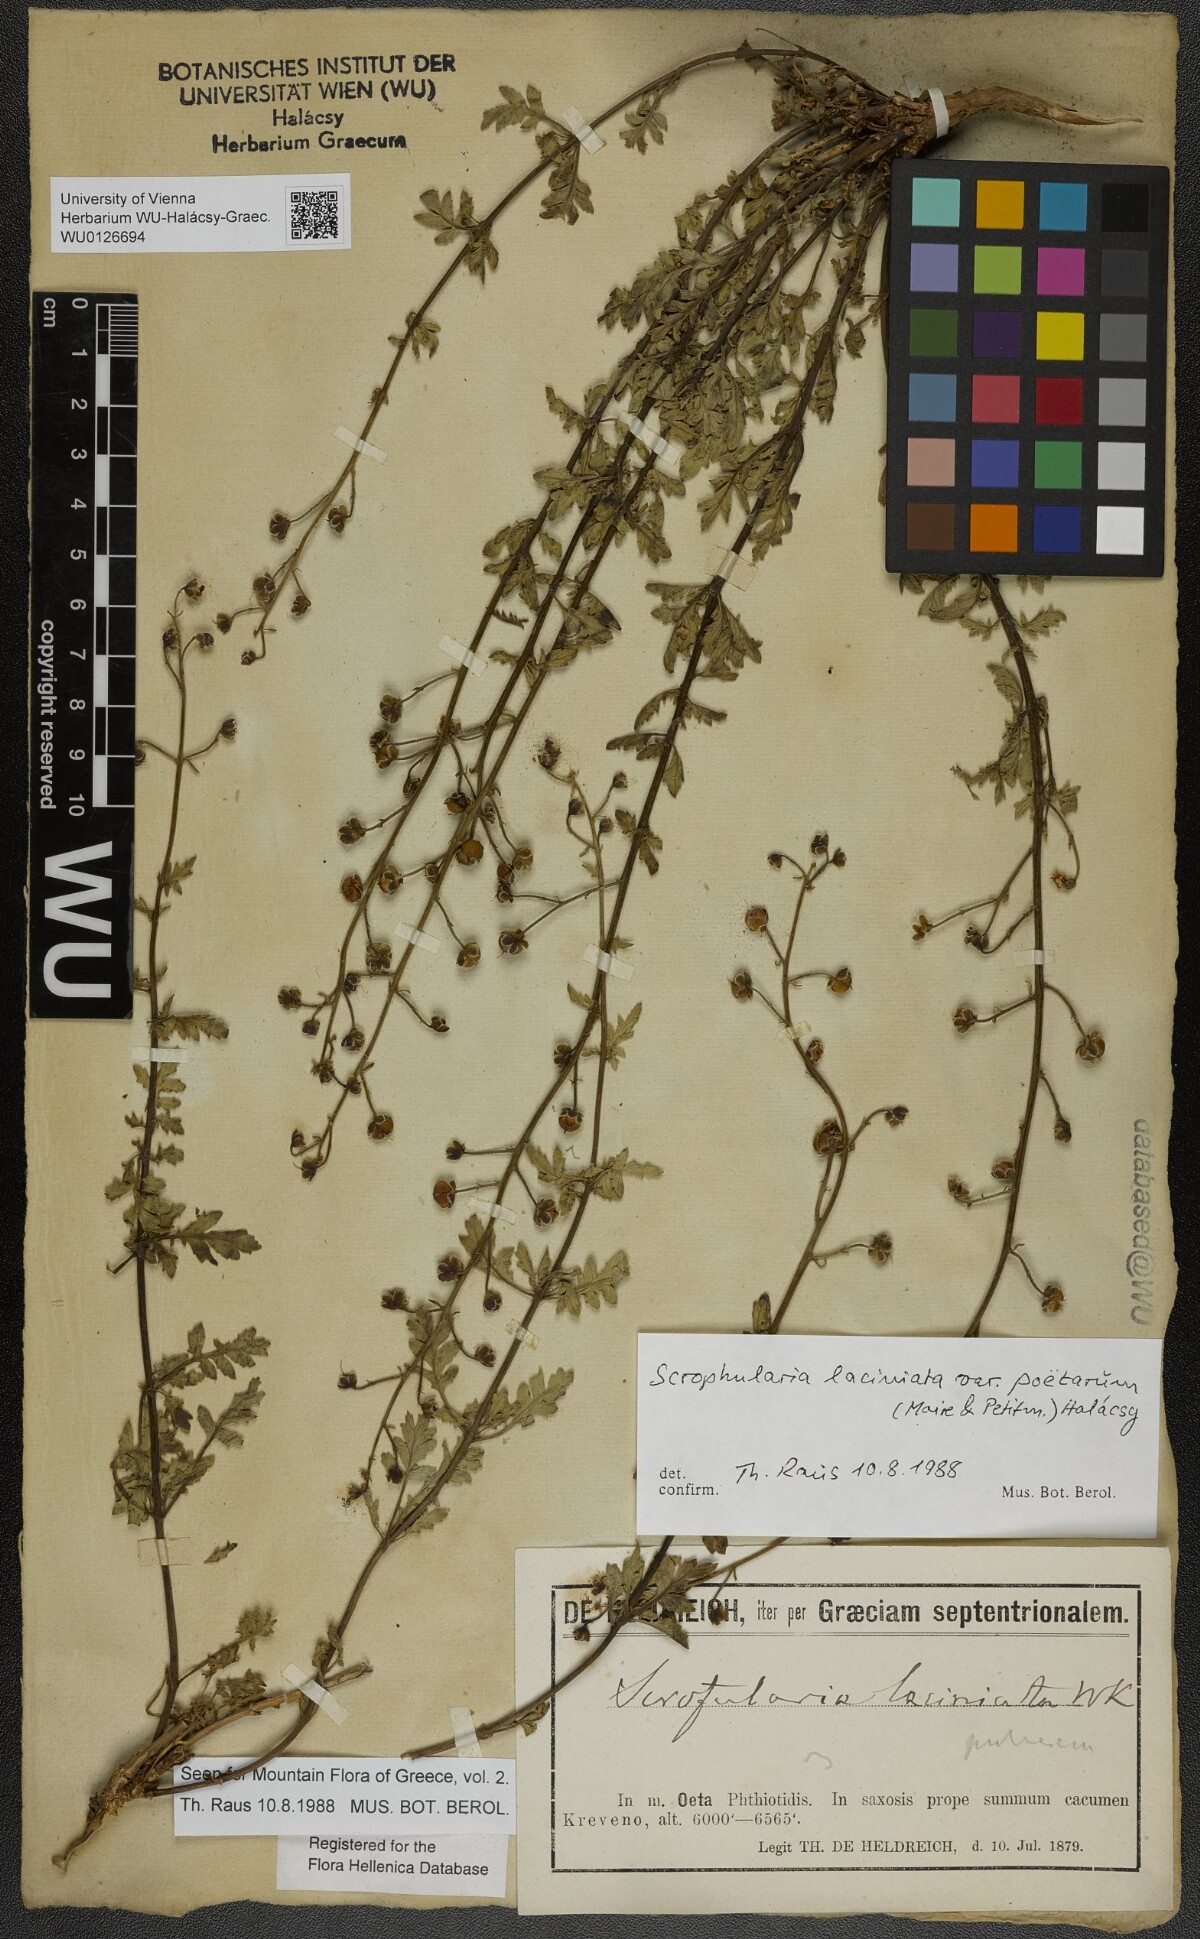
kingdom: Plantae
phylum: Tracheophyta
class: Magnoliopsida
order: Lamiales
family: Scrophulariaceae
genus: Scrophularia
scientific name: Scrophularia laciniata
